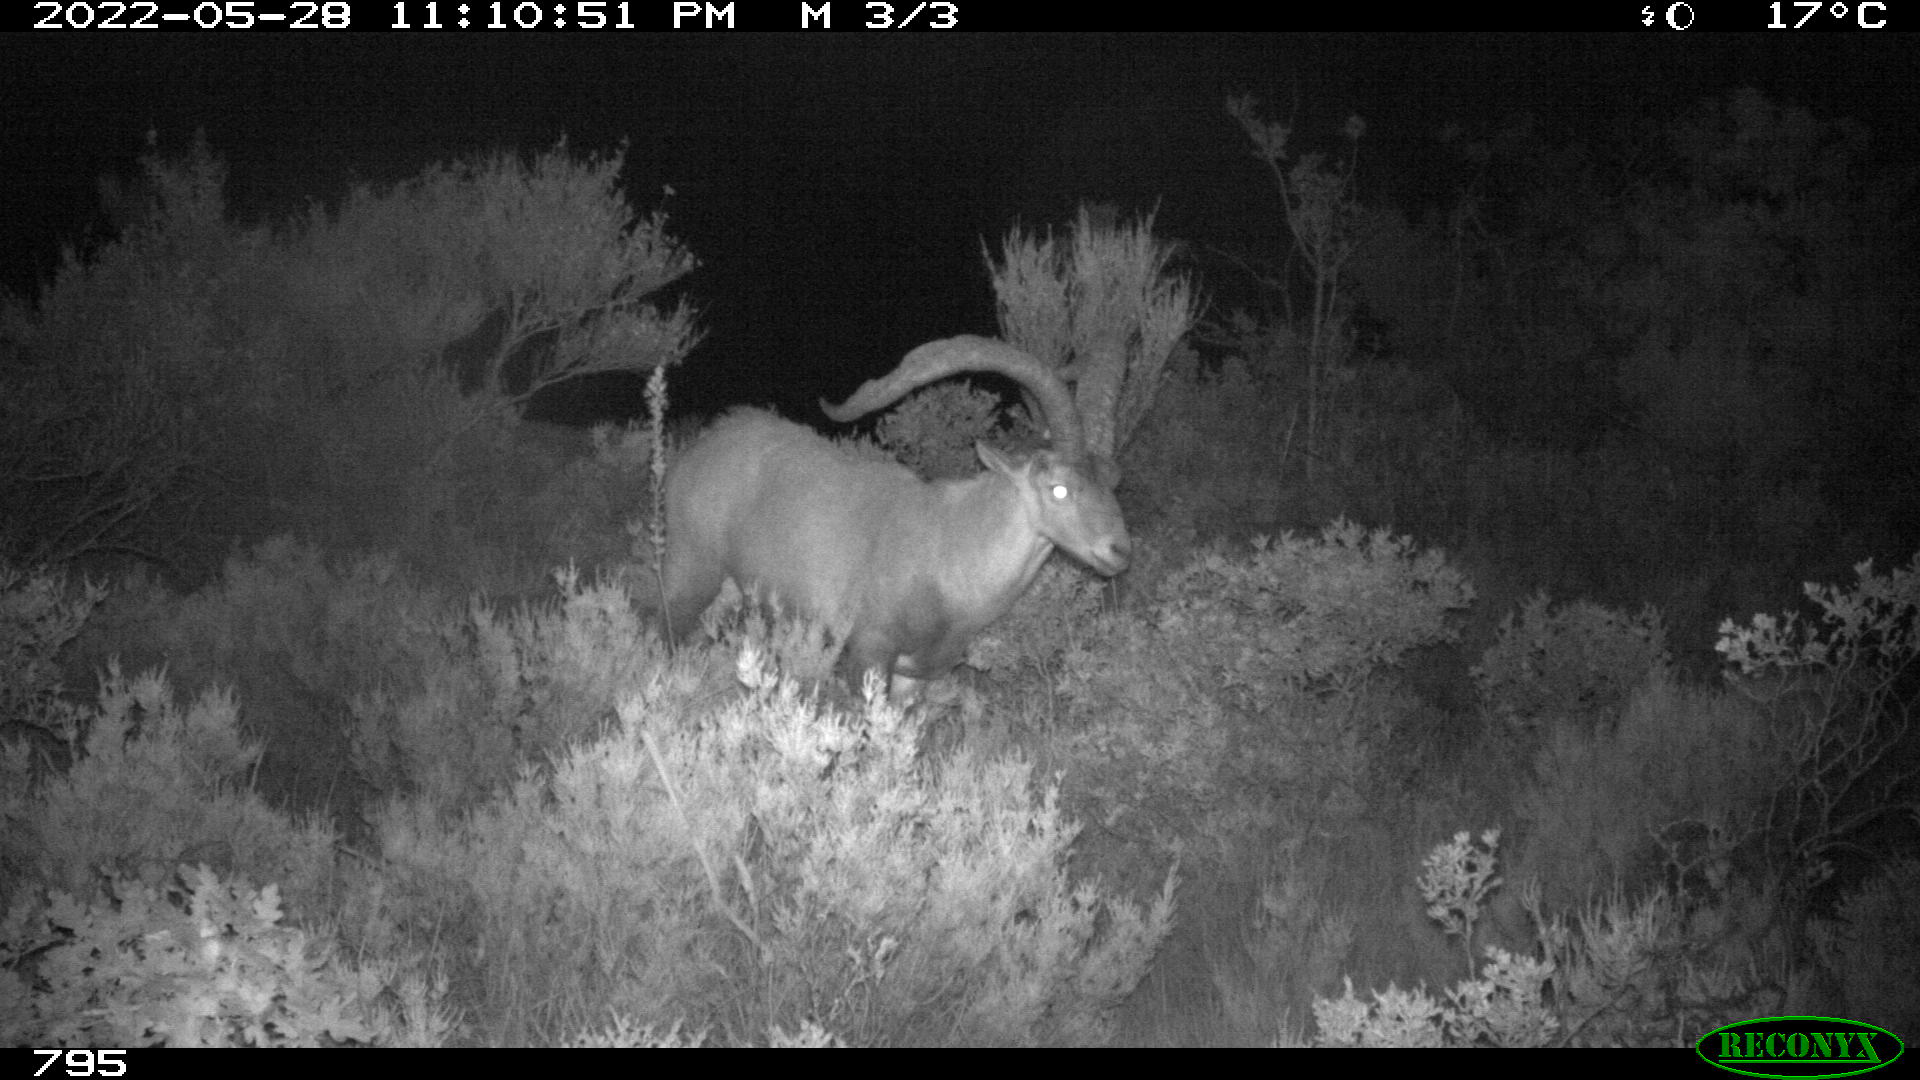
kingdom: Animalia
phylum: Chordata
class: Mammalia
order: Artiodactyla
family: Bovidae
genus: Capra
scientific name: Capra pyrenaica
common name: Spanish ibex
